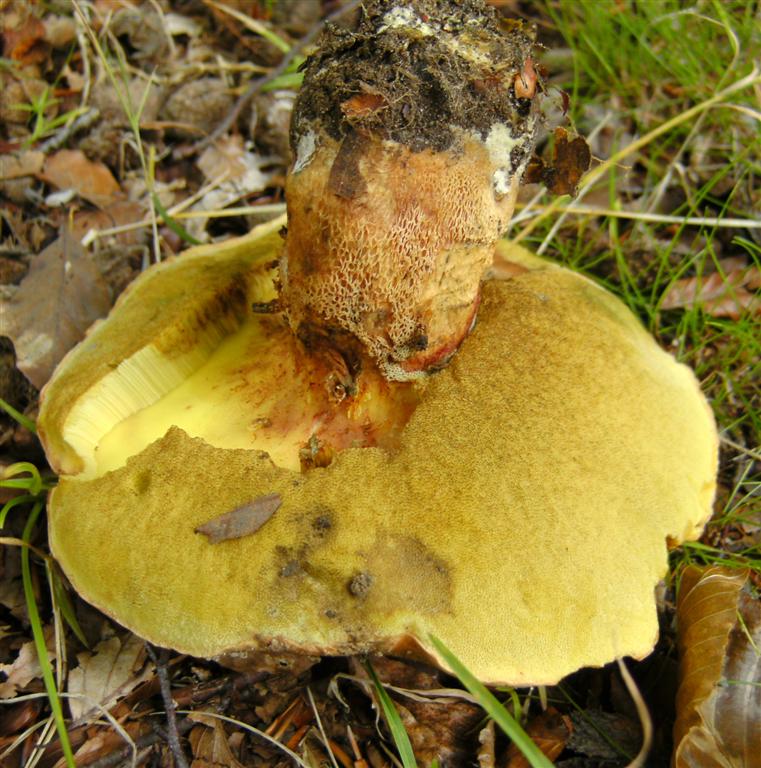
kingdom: Fungi
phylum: Basidiomycota
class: Agaricomycetes
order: Boletales
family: Boletaceae
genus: Butyriboletus
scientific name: Butyriboletus appendiculatus
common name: tenstokket rørhat
